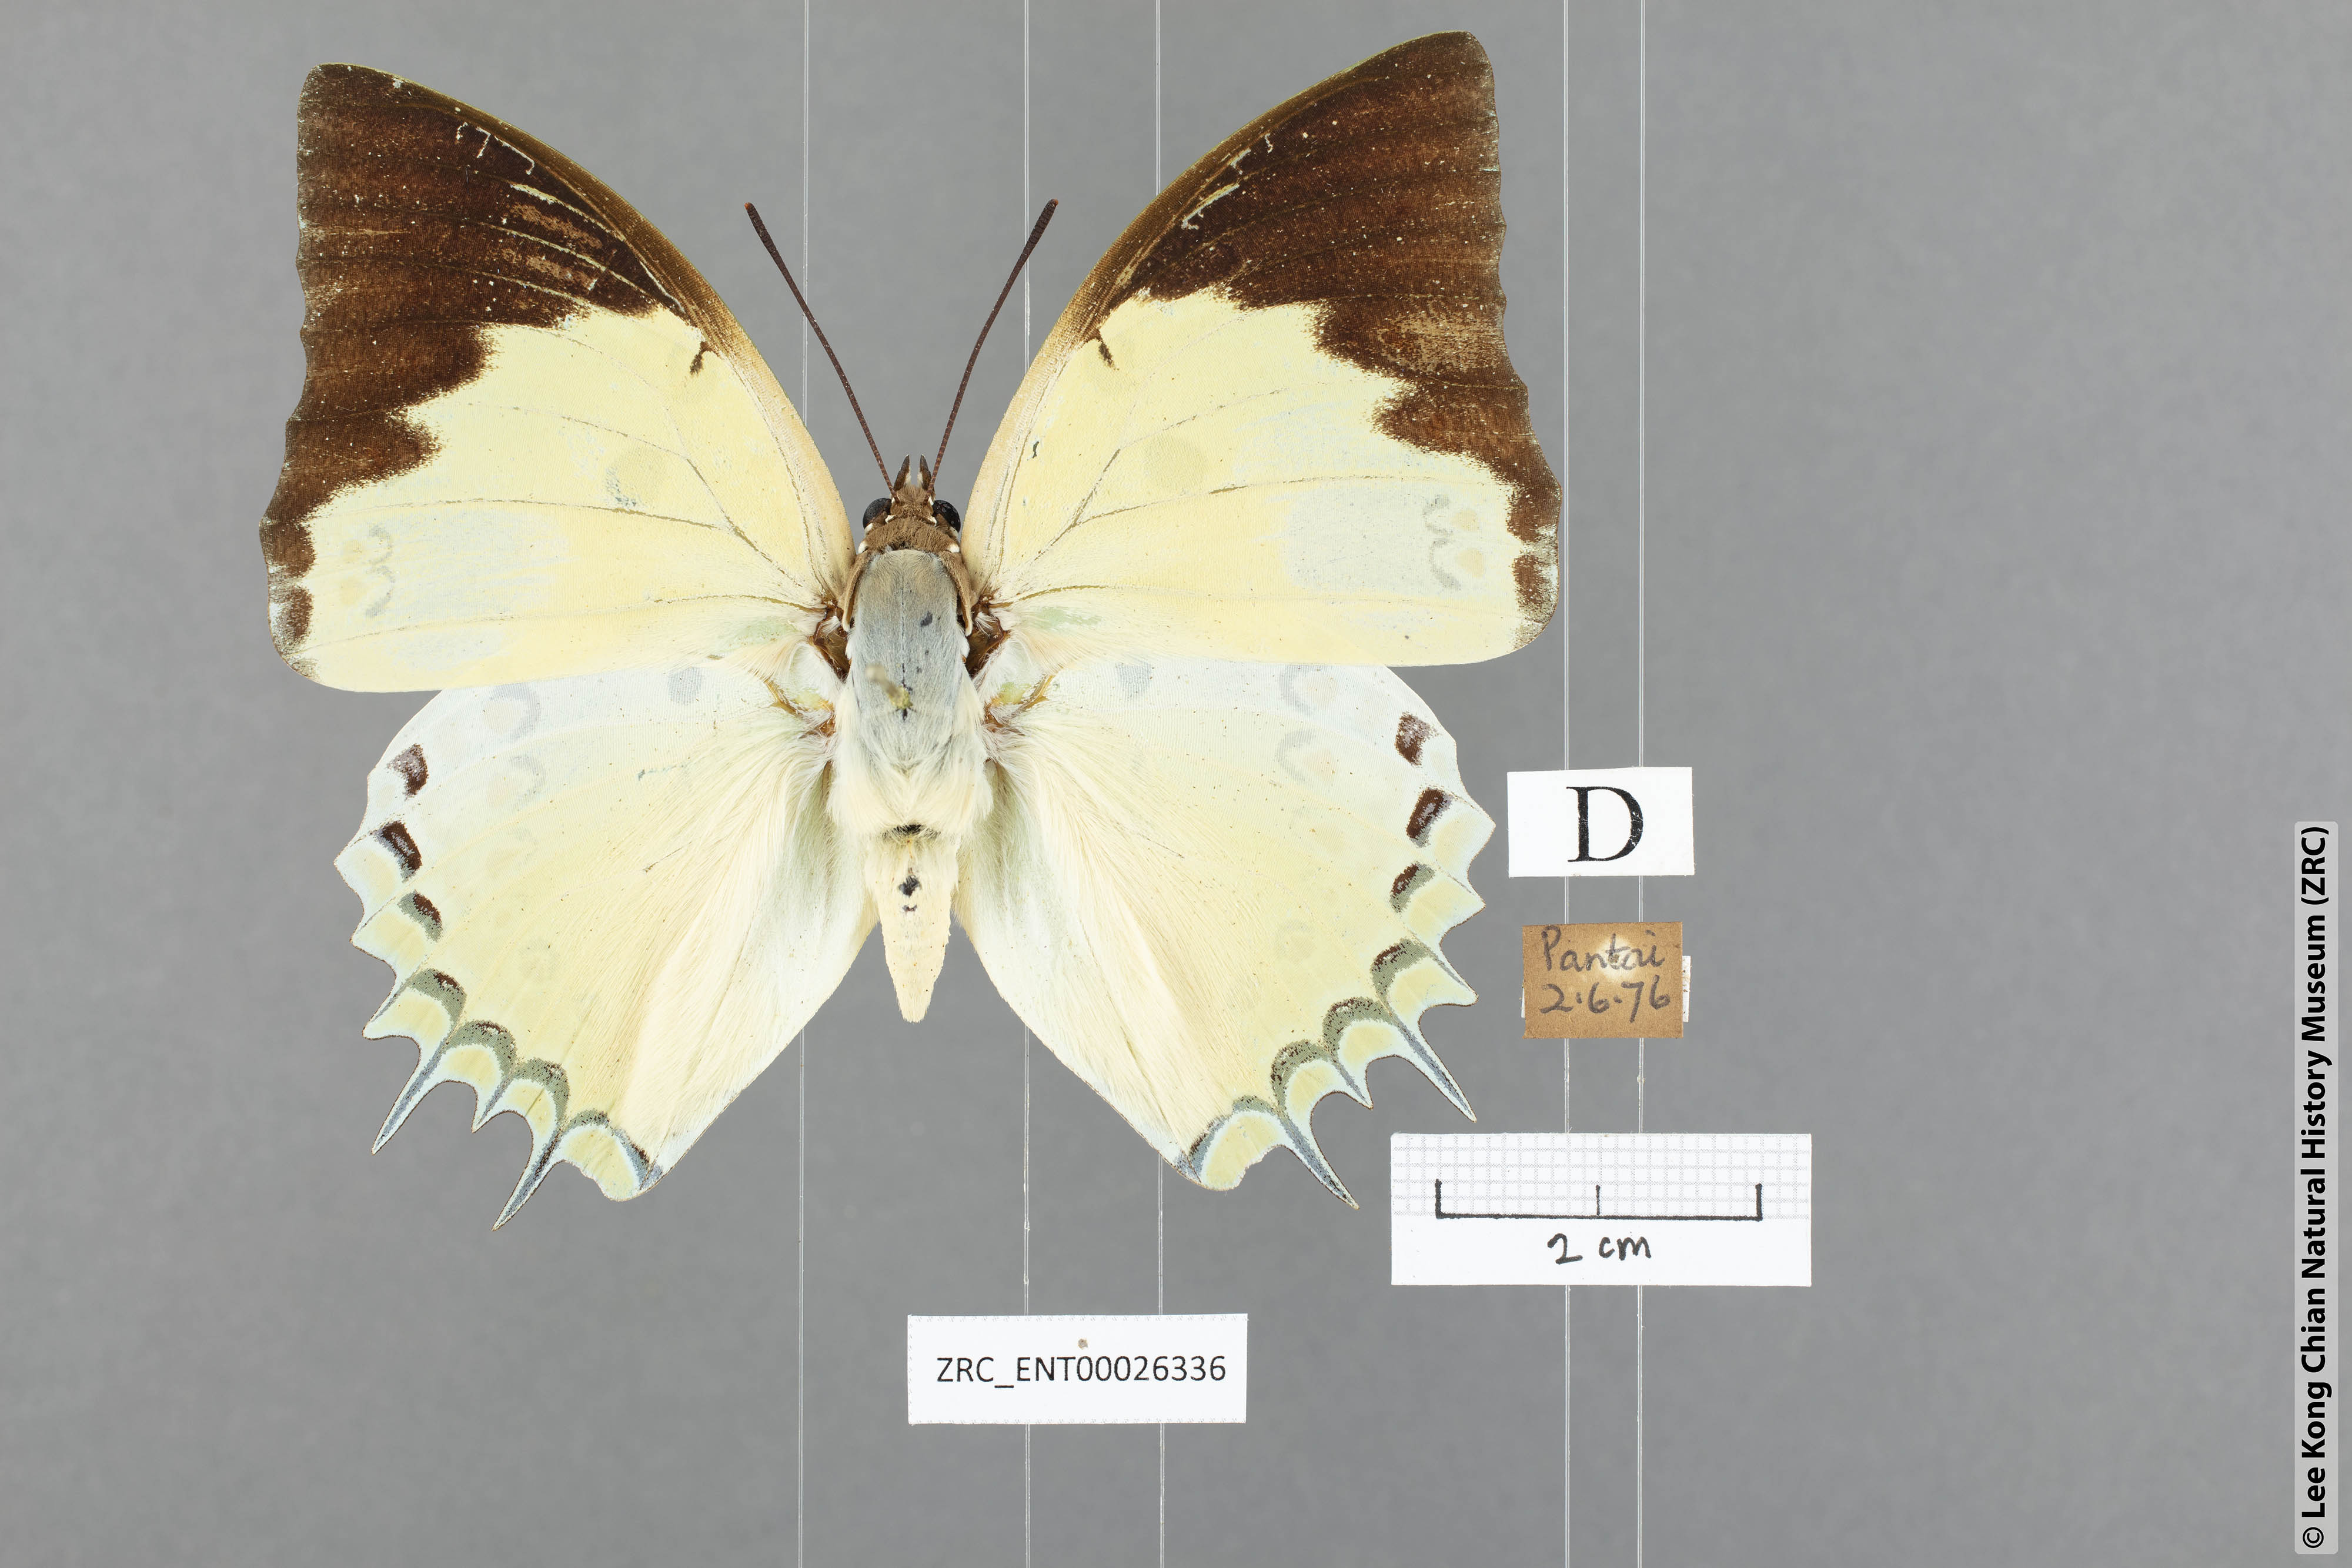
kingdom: Animalia
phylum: Arthropoda
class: Insecta
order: Lepidoptera
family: Nymphalidae
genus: Polyura
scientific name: Polyura delphis
